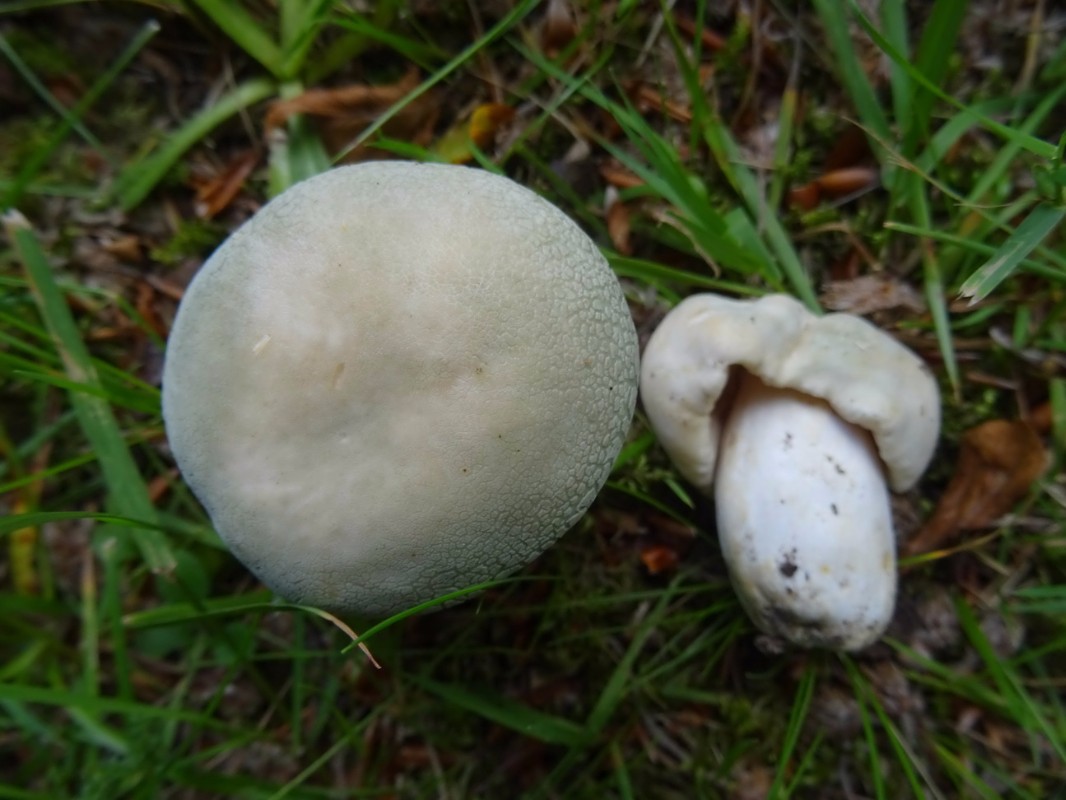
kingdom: Fungi
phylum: Basidiomycota
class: Agaricomycetes
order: Russulales
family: Russulaceae
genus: Russula
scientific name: Russula virescens
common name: spanskgrøn skørhat
